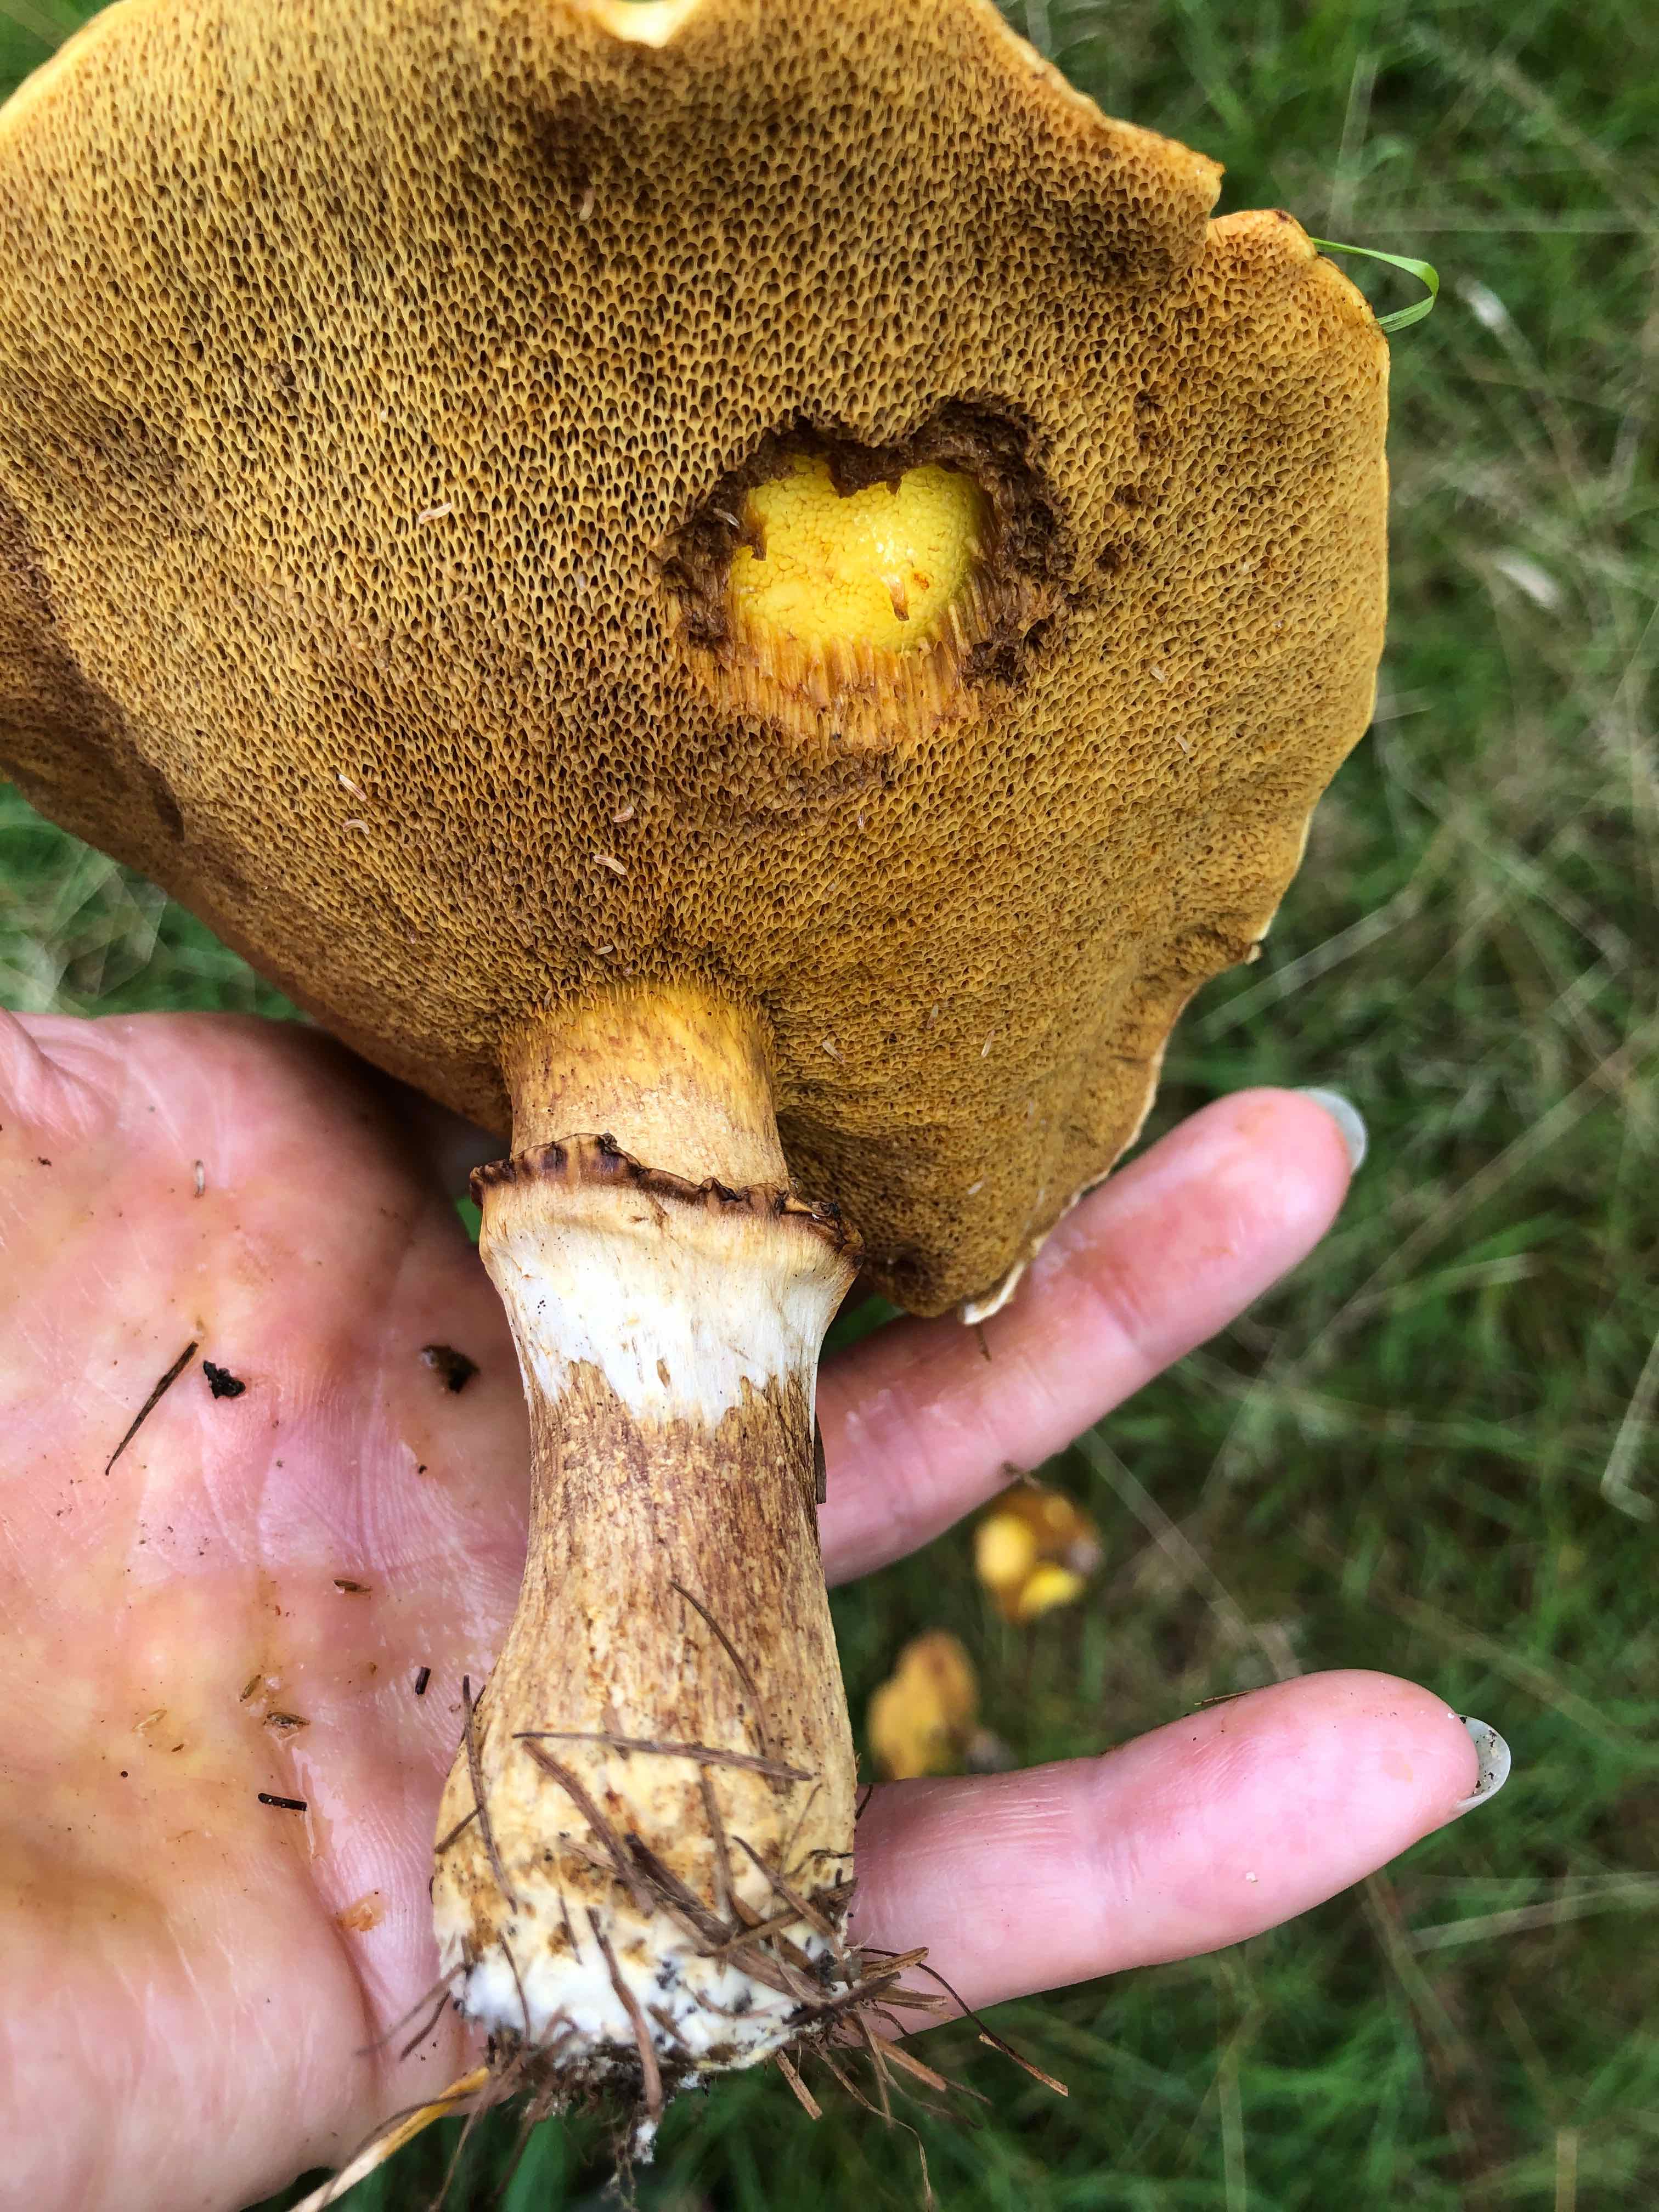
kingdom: Fungi
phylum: Basidiomycota
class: Agaricomycetes
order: Boletales
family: Suillaceae
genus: Suillus
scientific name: Suillus grevillei
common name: lærke-slimrørhat
